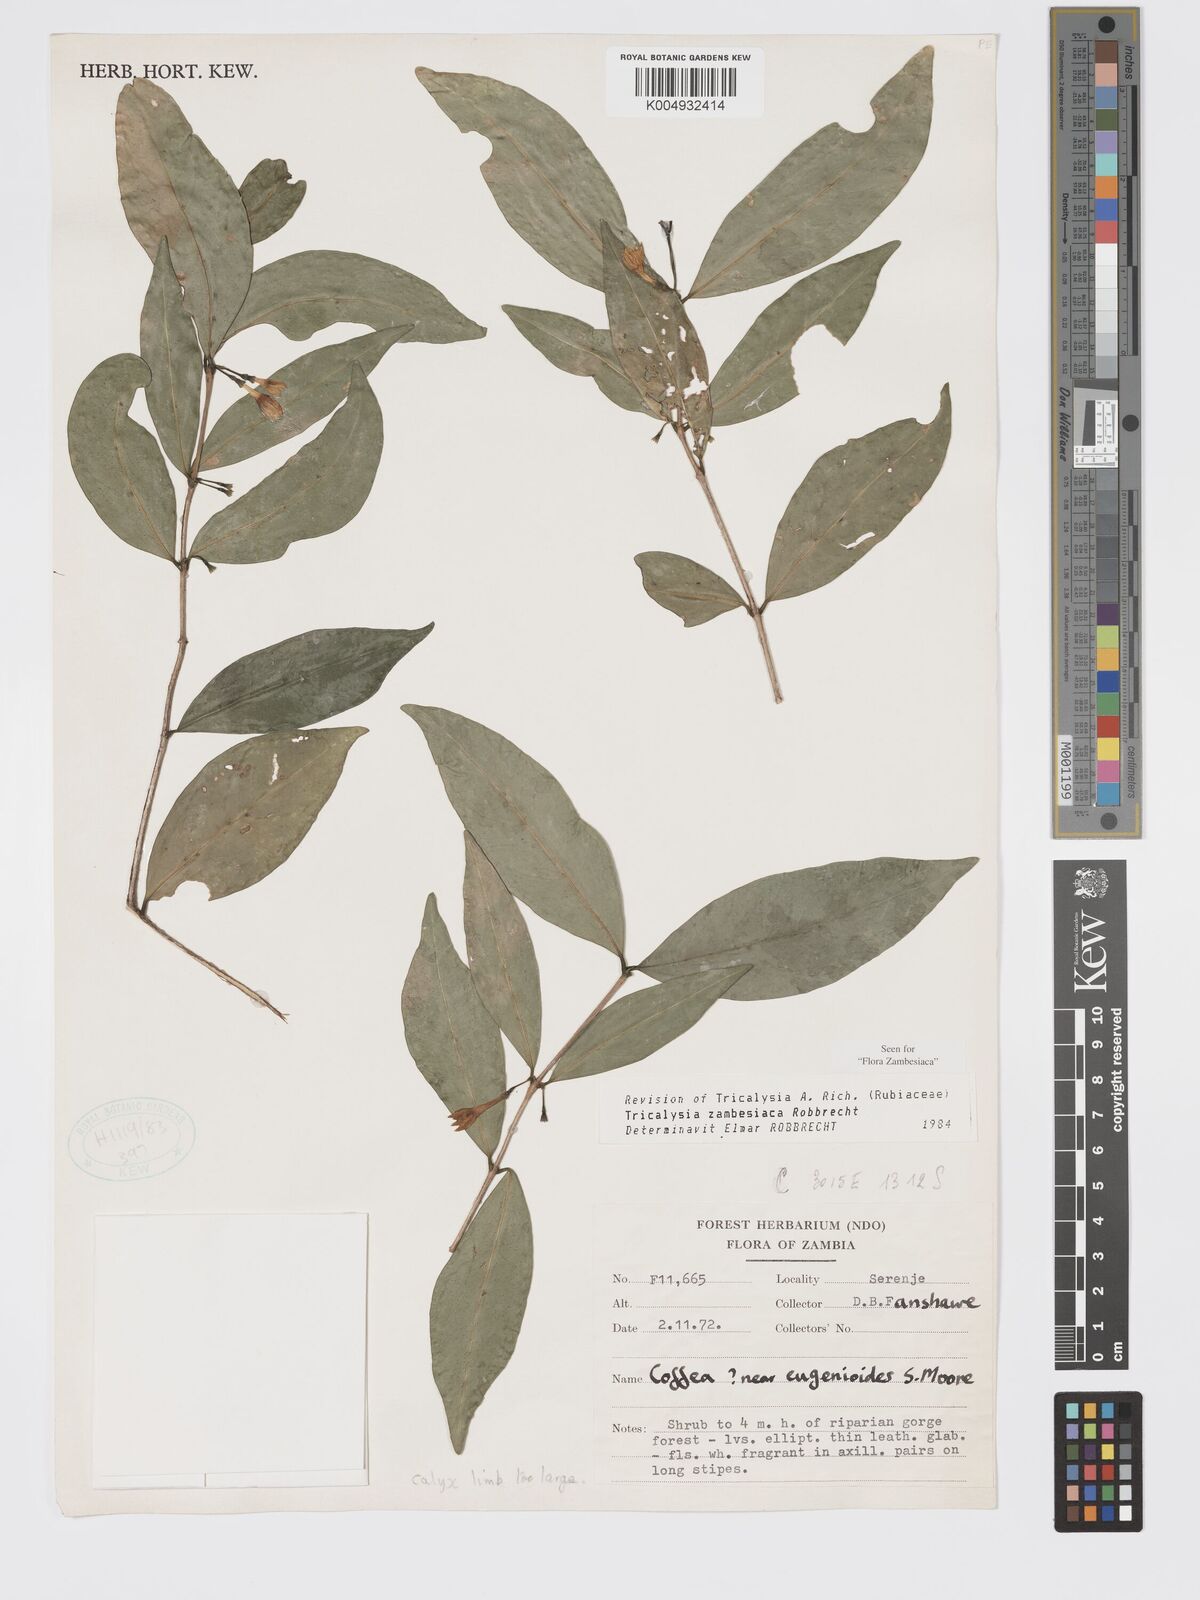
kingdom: Plantae
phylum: Tracheophyta
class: Magnoliopsida
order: Gentianales
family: Rubiaceae
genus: Tricalysia
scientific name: Tricalysia
